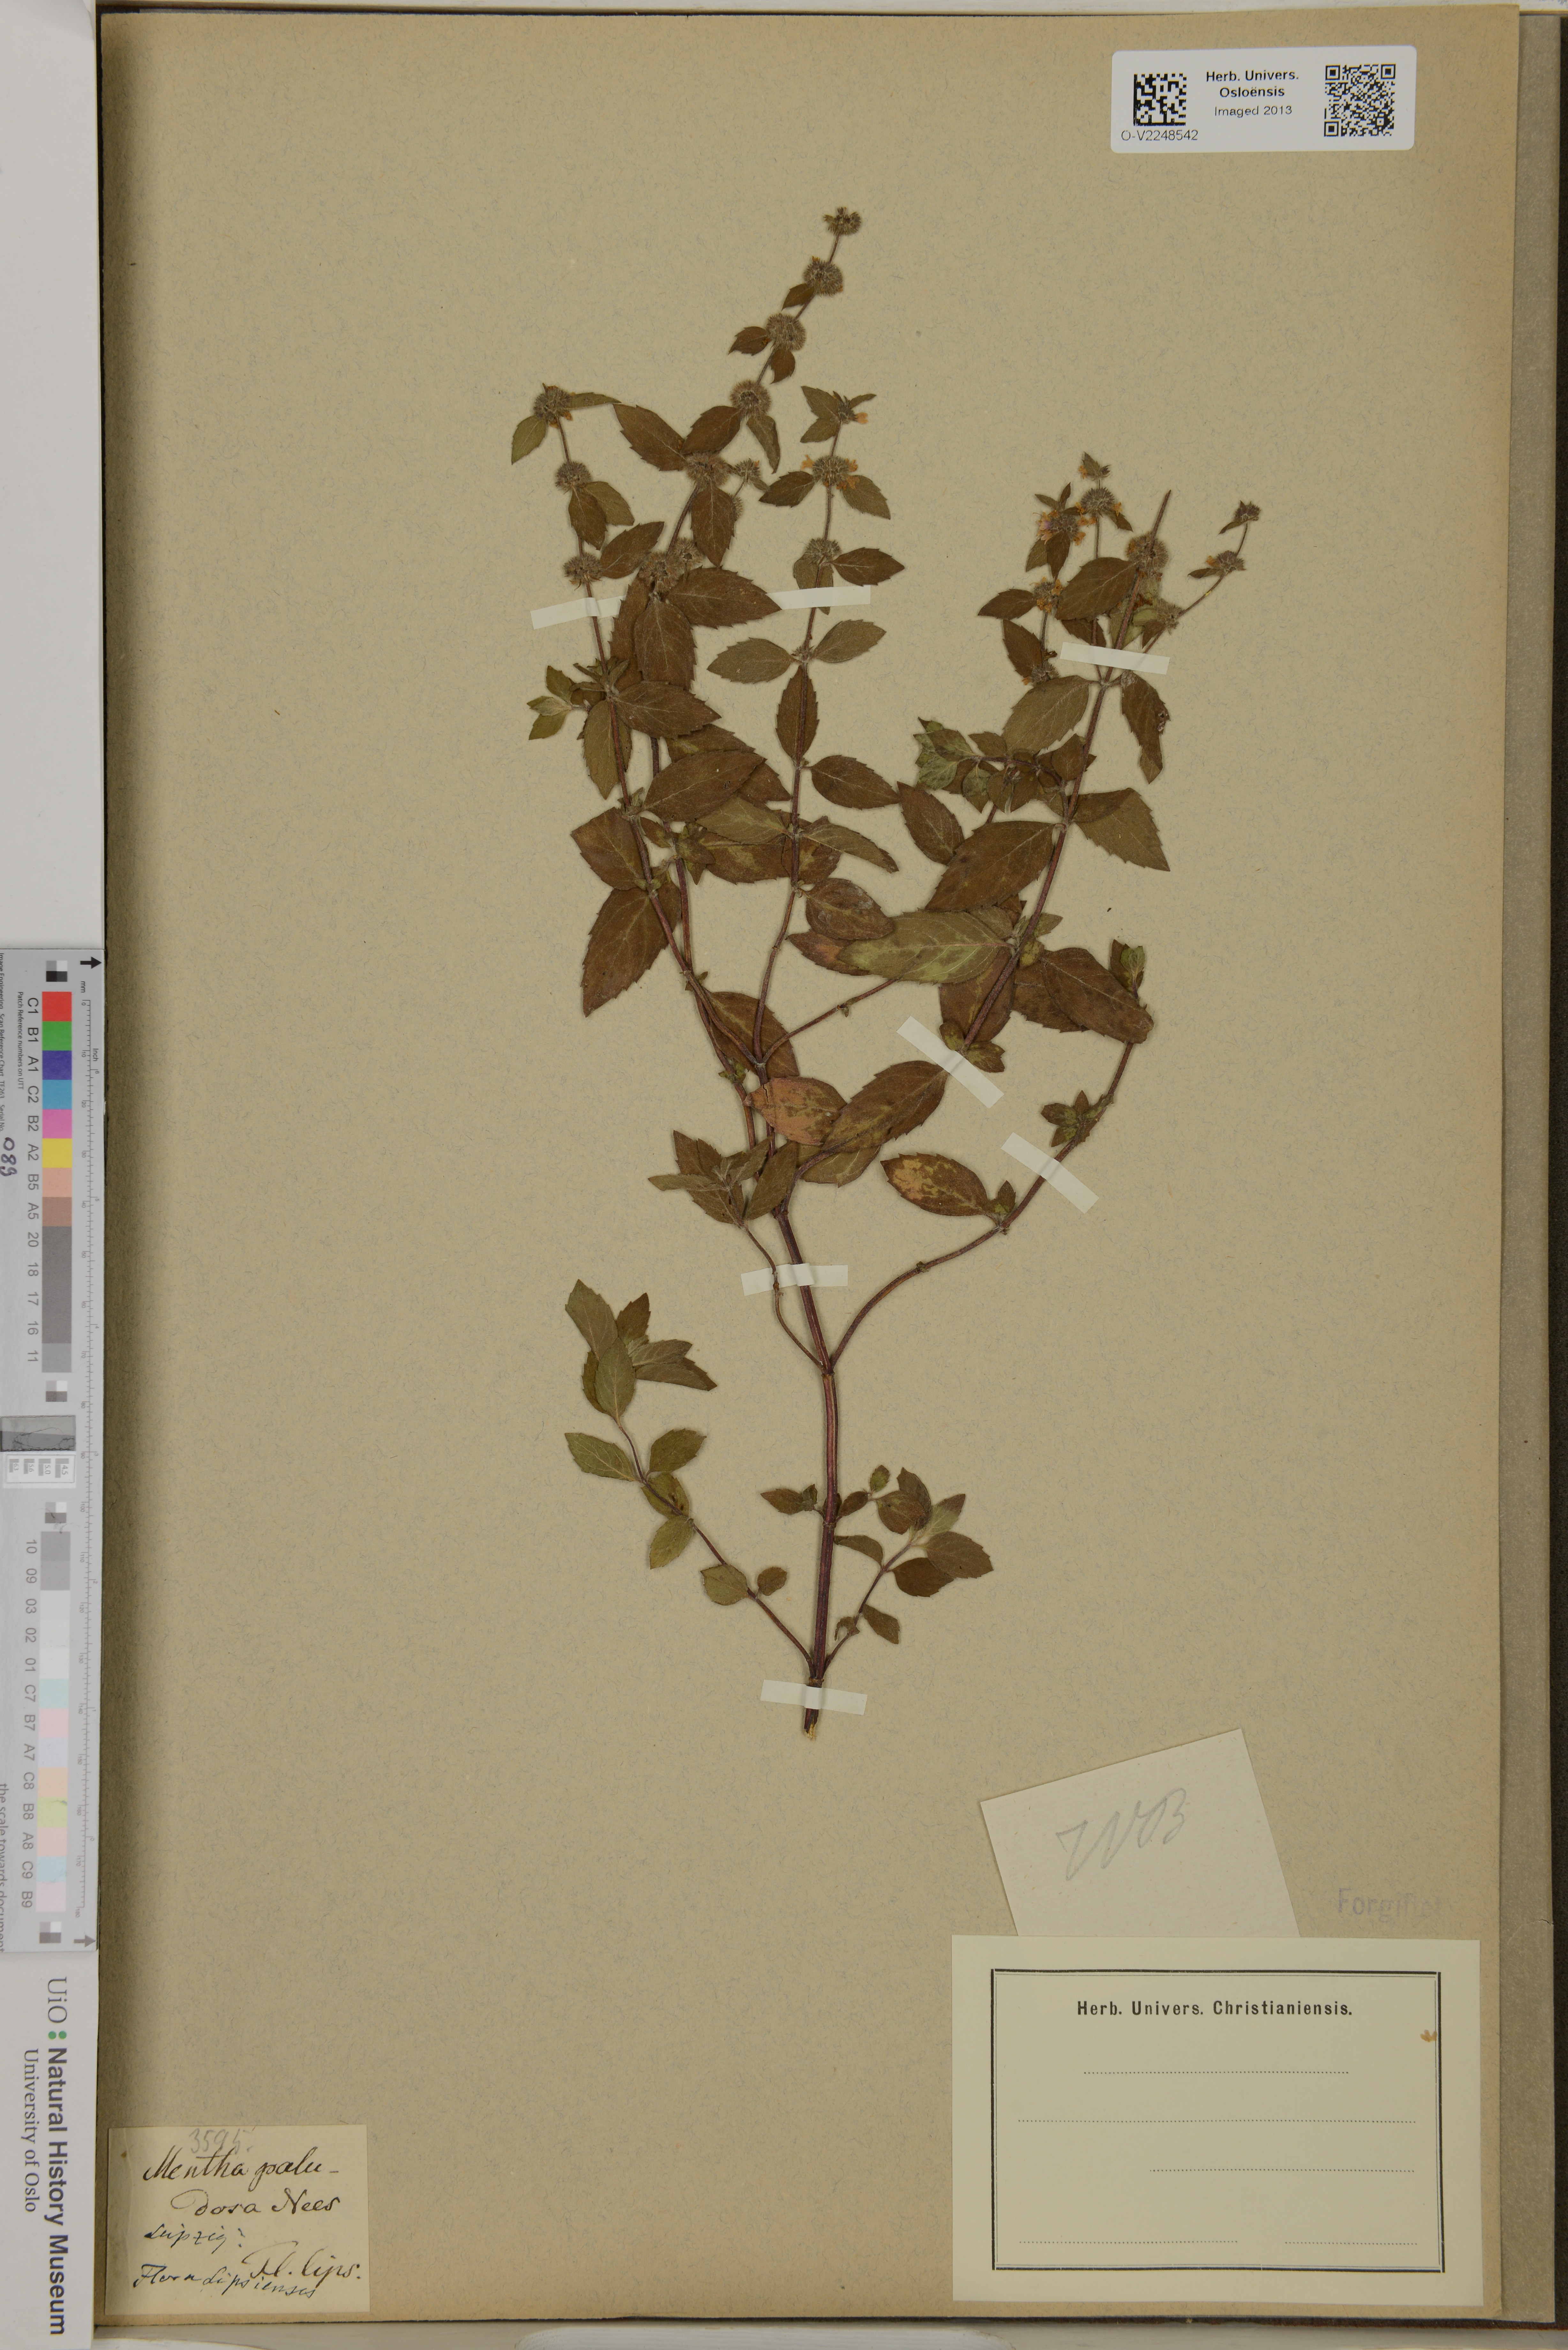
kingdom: Plantae
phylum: Tracheophyta
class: Magnoliopsida
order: Lamiales
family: Lamiaceae
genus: Mentha
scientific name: Mentha
